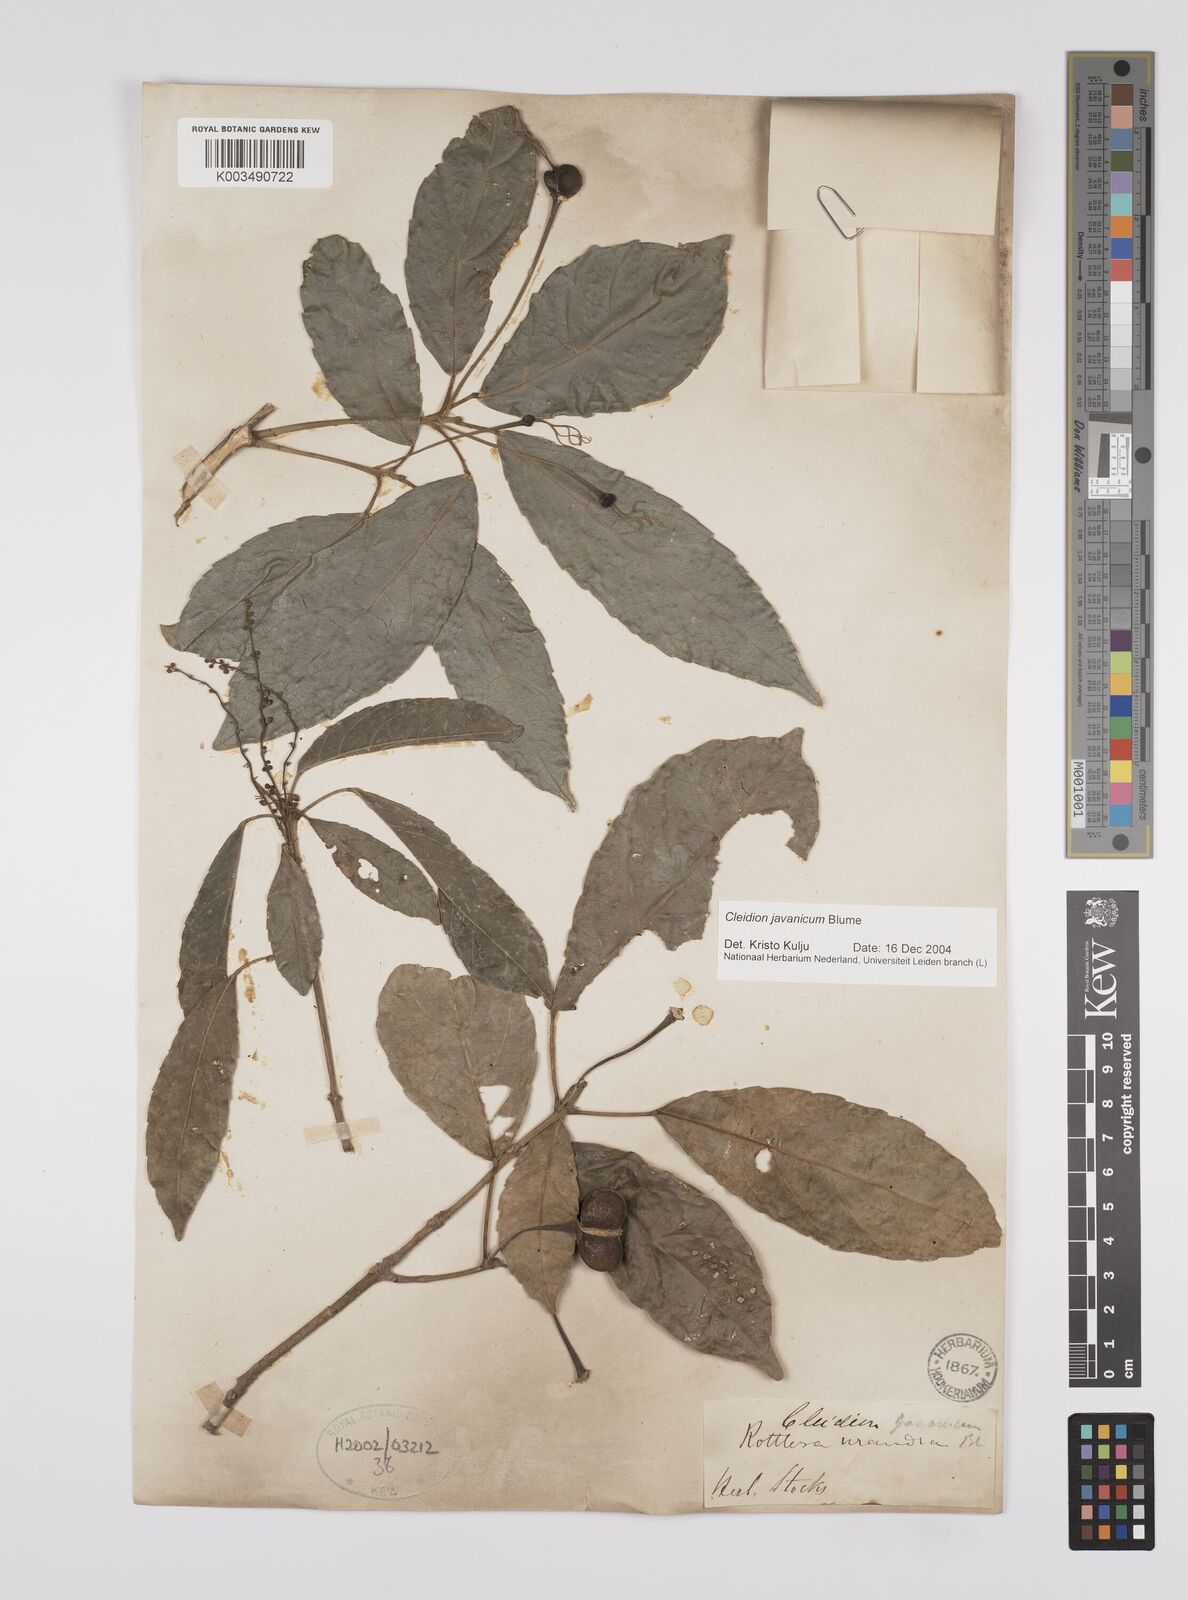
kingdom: Plantae
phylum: Tracheophyta
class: Magnoliopsida
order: Malpighiales
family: Euphorbiaceae
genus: Cleidion
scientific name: Cleidion javanicum
